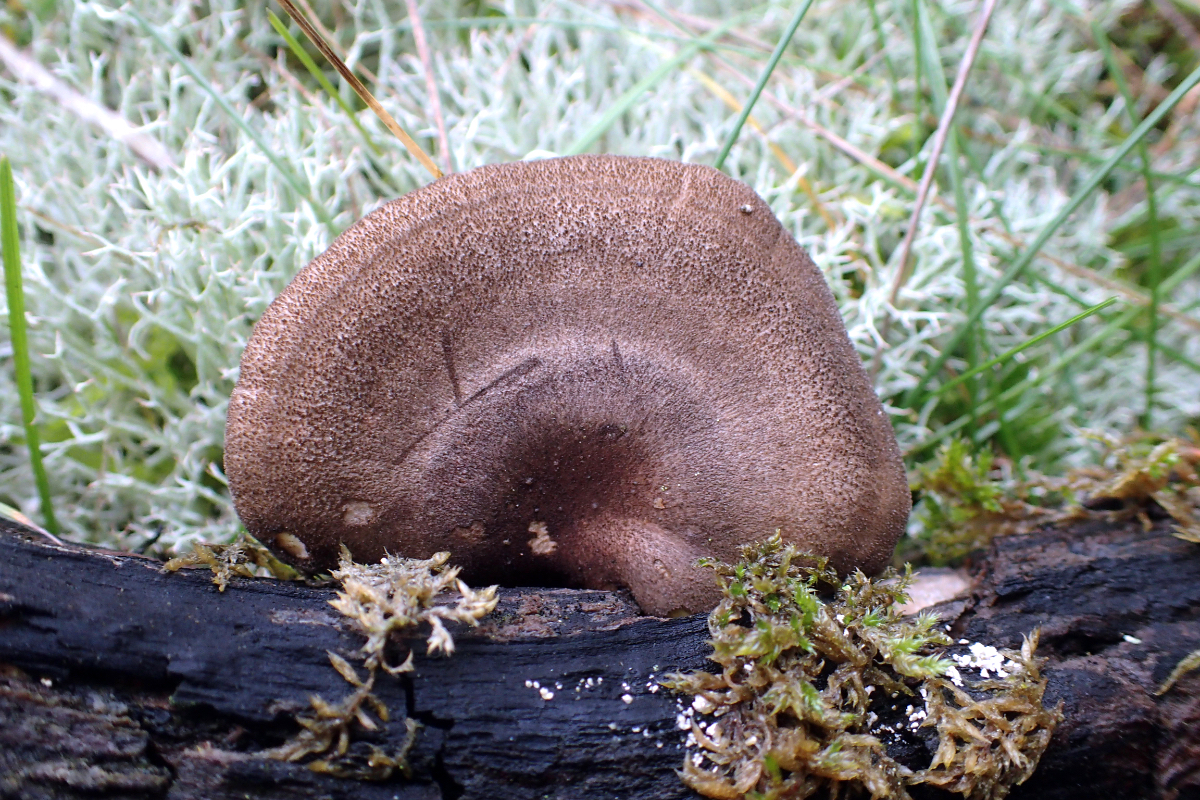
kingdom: Fungi
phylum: Basidiomycota
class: Agaricomycetes
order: Polyporales
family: Polyporaceae
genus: Lentinus
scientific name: Lentinus brumalis
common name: vinter-stilkporesvamp
